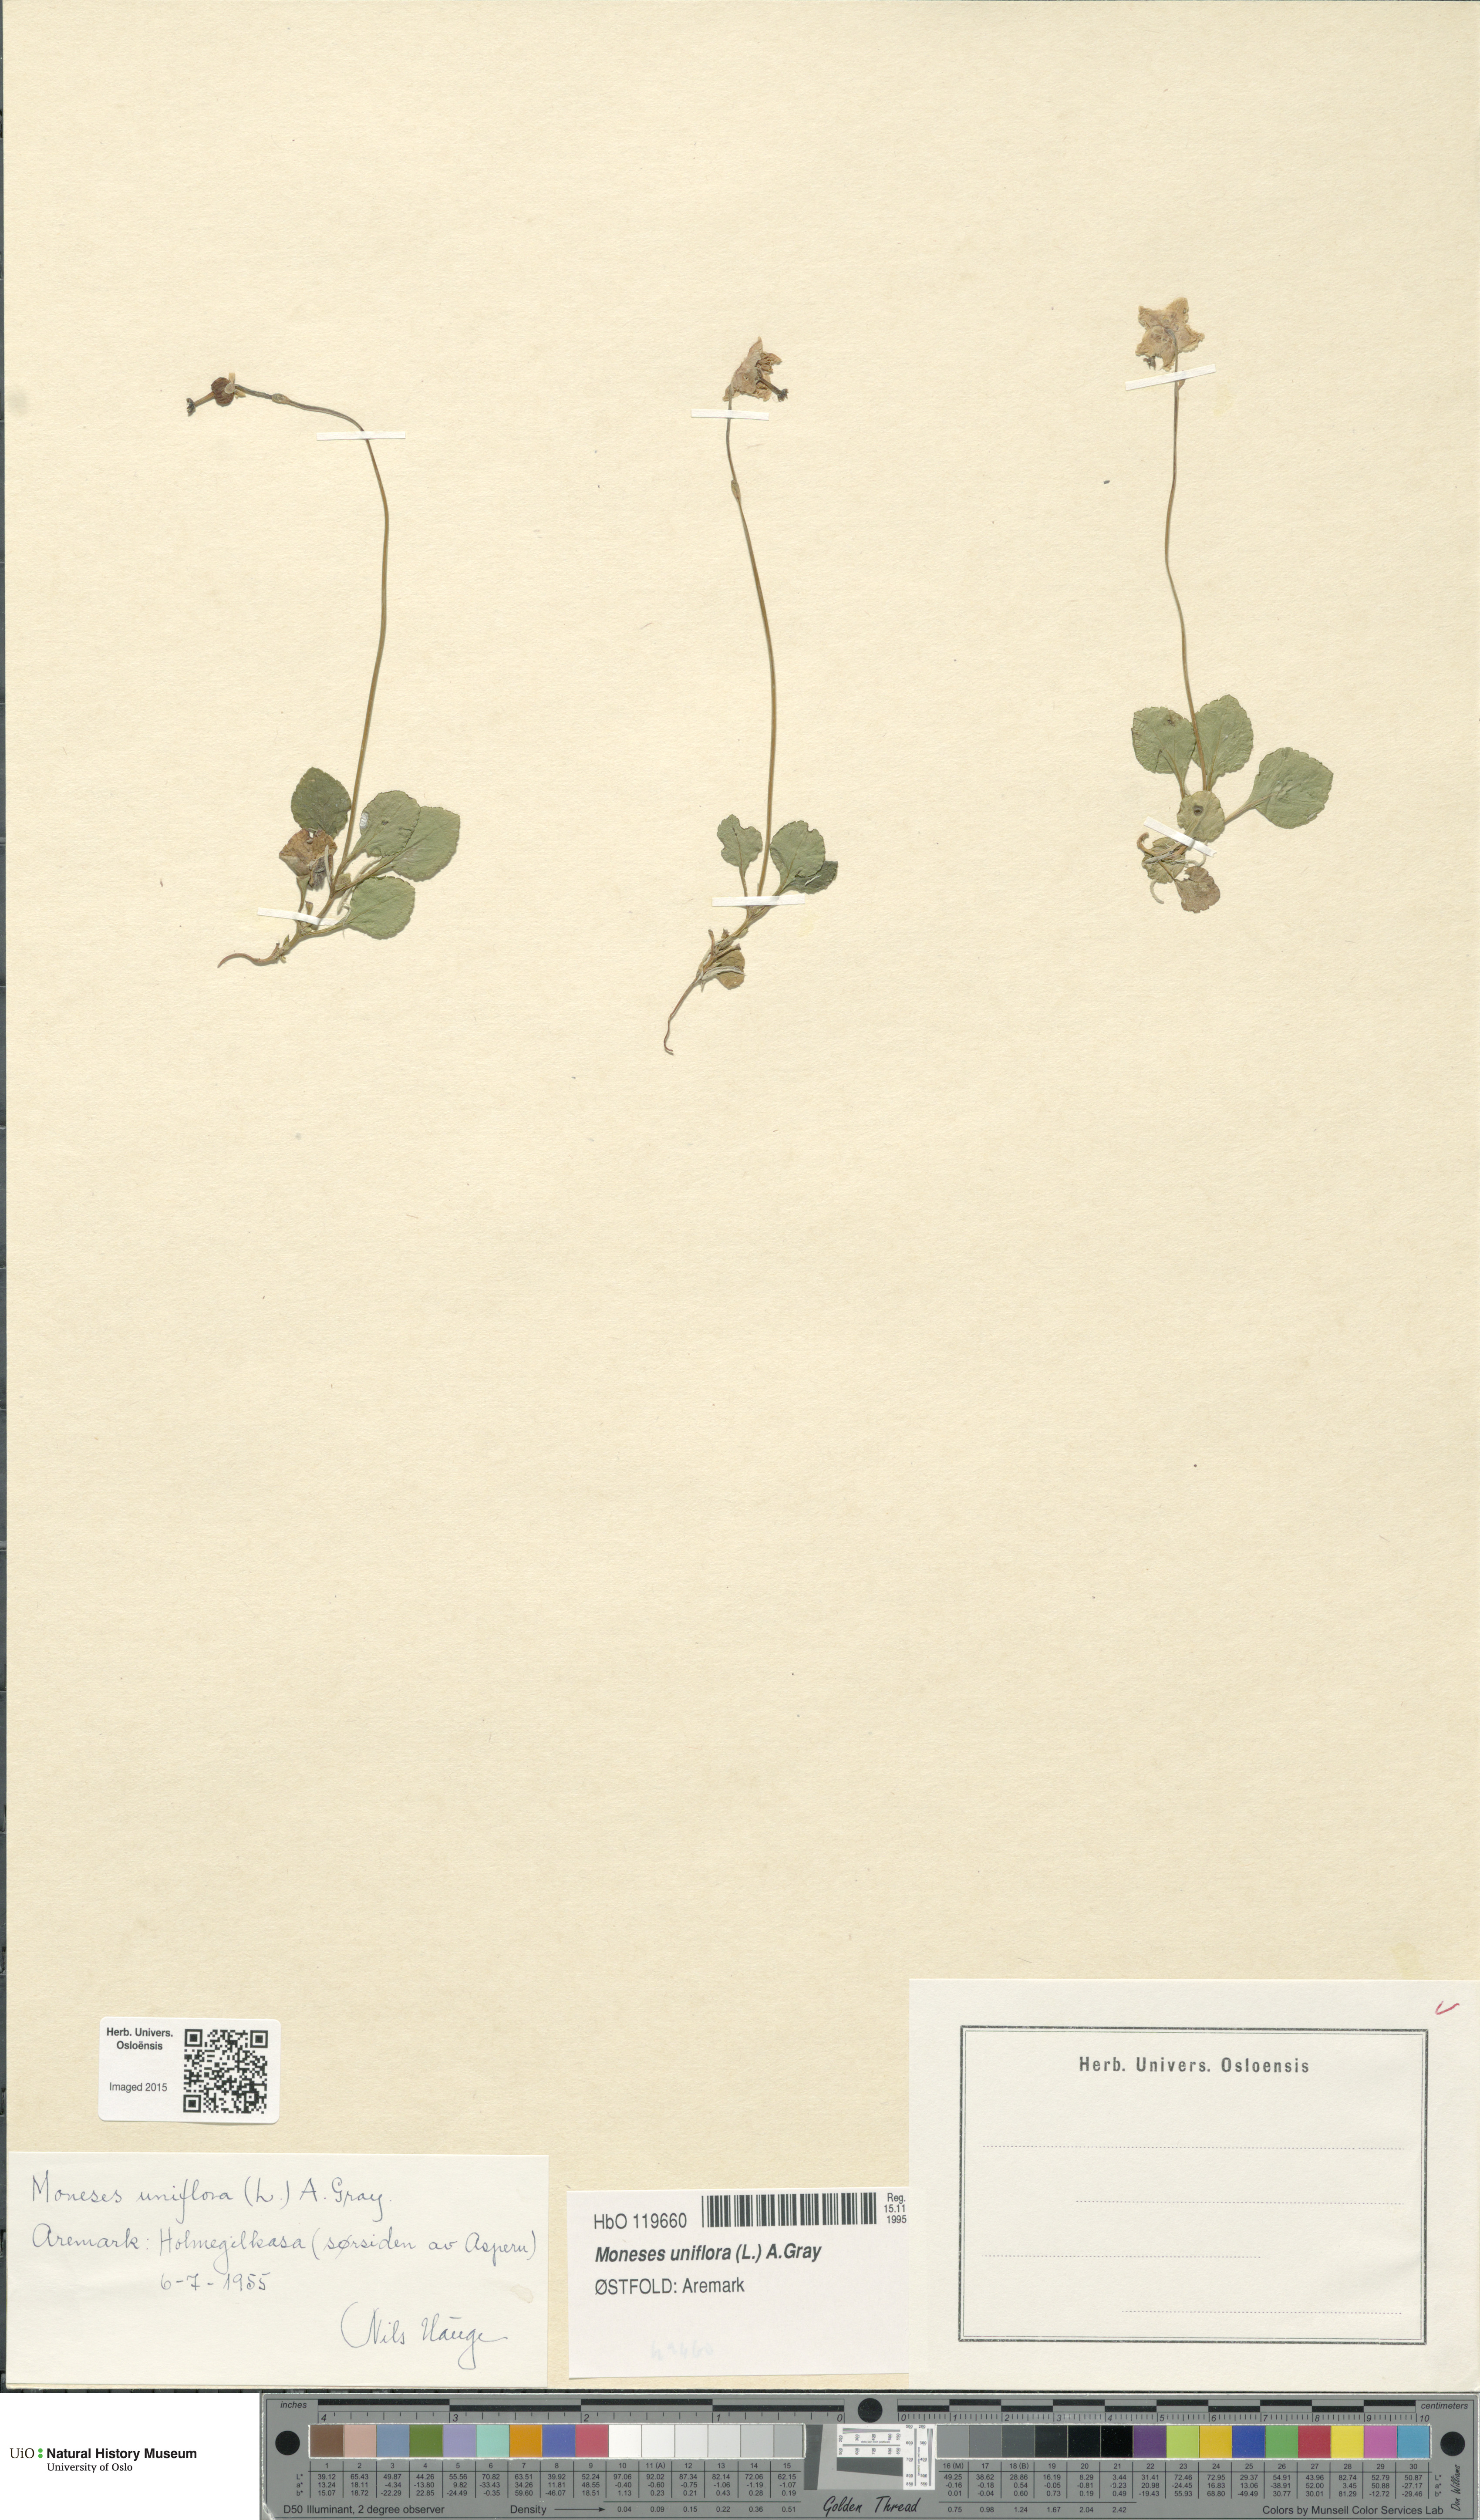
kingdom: Plantae
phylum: Tracheophyta
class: Magnoliopsida
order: Ericales
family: Ericaceae
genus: Moneses
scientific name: Moneses uniflora
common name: One-flowered wintergreen
